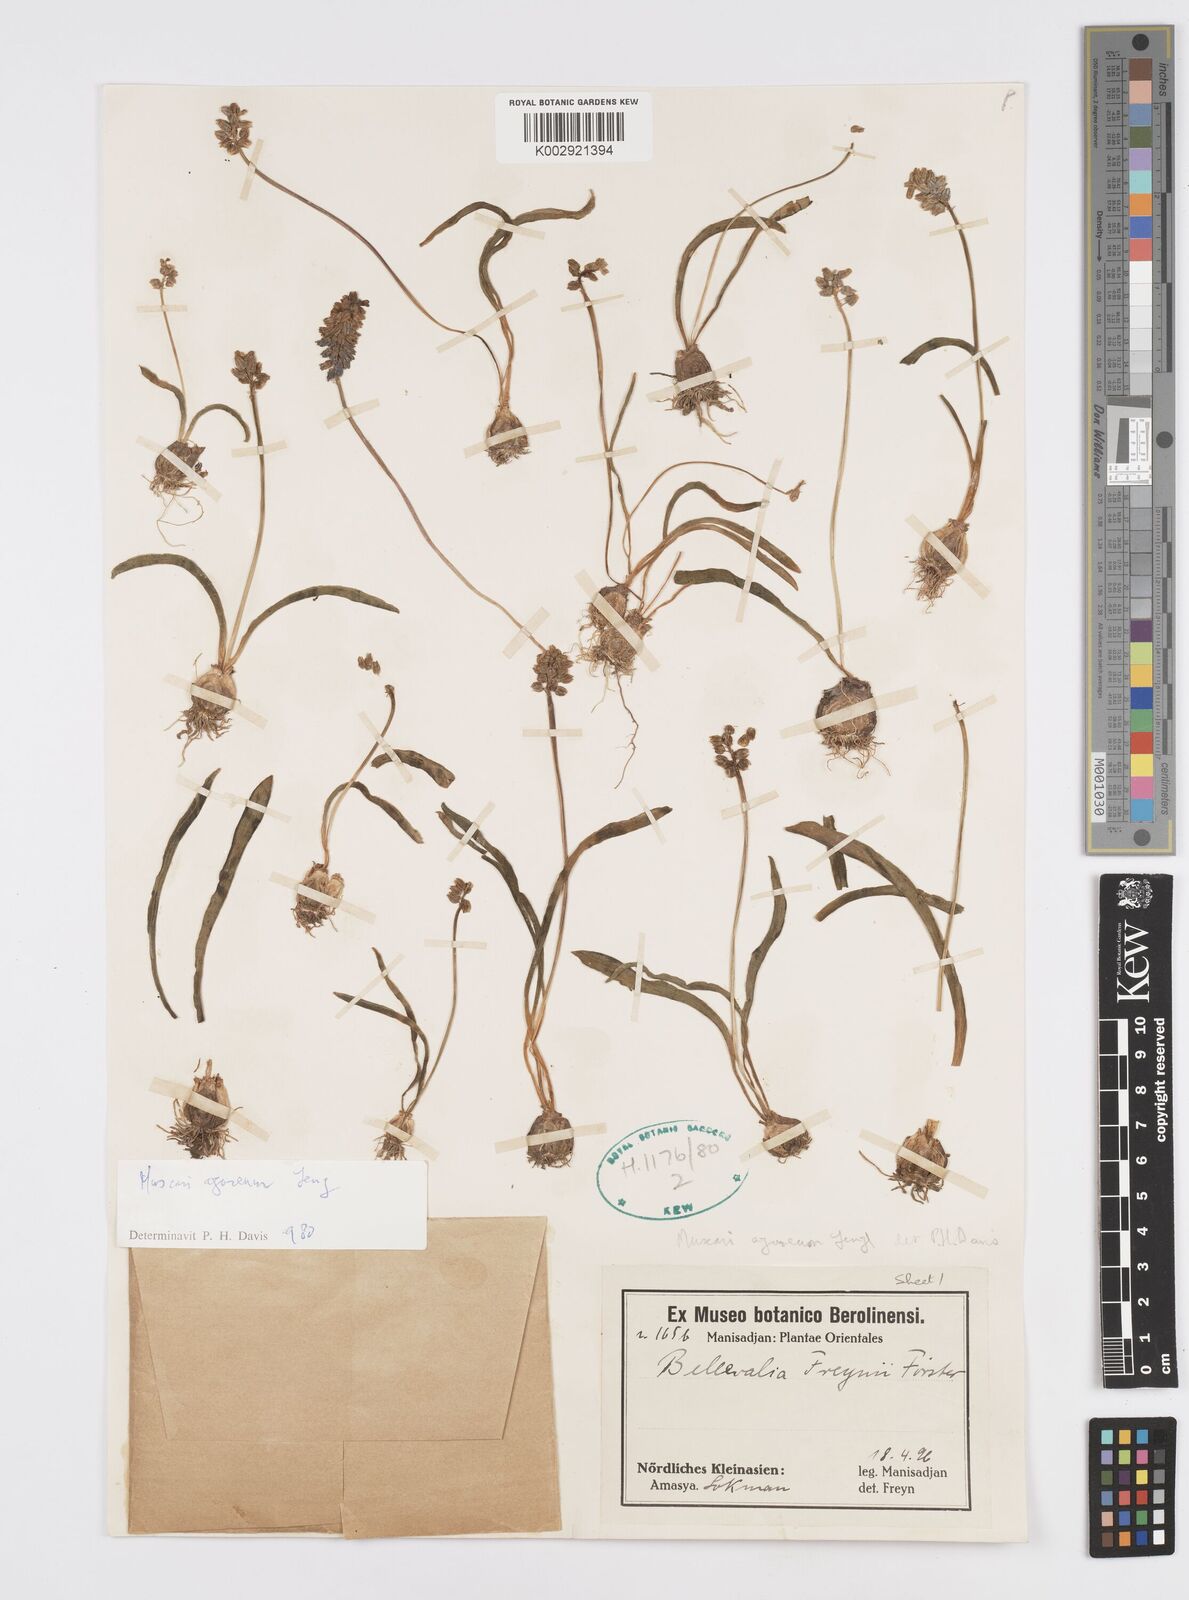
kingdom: Plantae
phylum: Tracheophyta
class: Liliopsida
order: Asparagales
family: Asparagaceae
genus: Muscari
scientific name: Muscari
